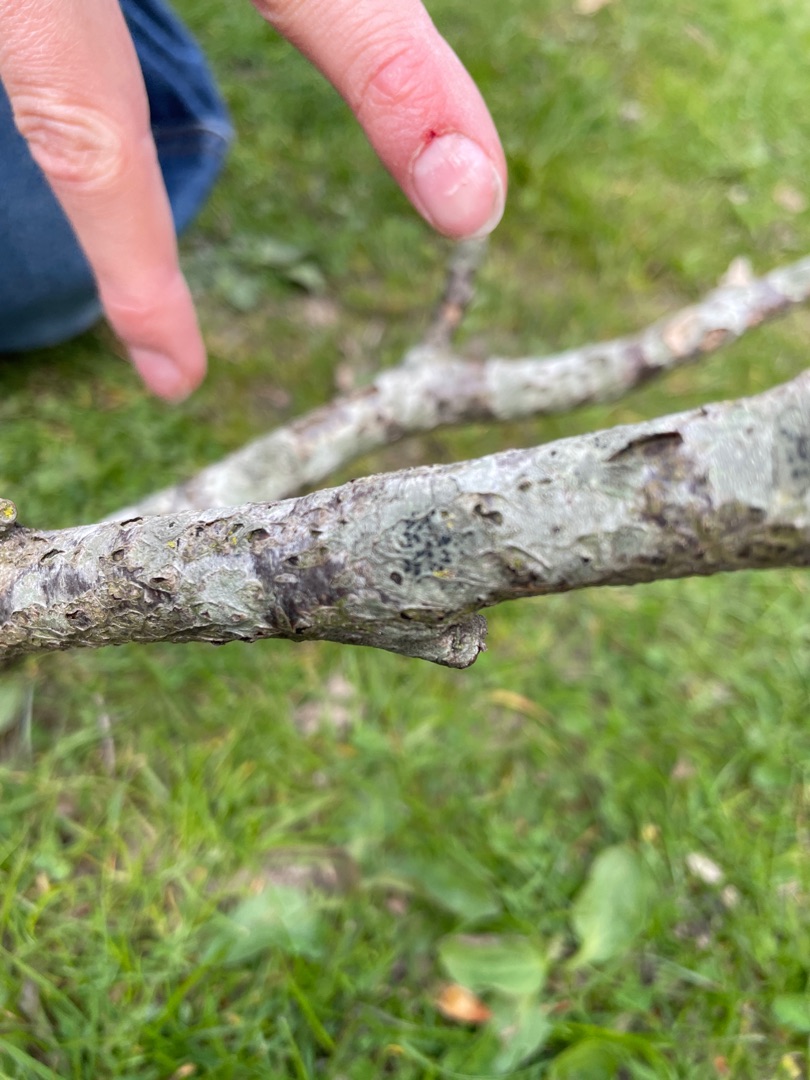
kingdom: Fungi
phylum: Ascomycota
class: Lecanoromycetes
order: Lecanorales
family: Lecanoraceae
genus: Lecidella
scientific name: Lecidella elaeochroma
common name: Grågrøn skivelav
